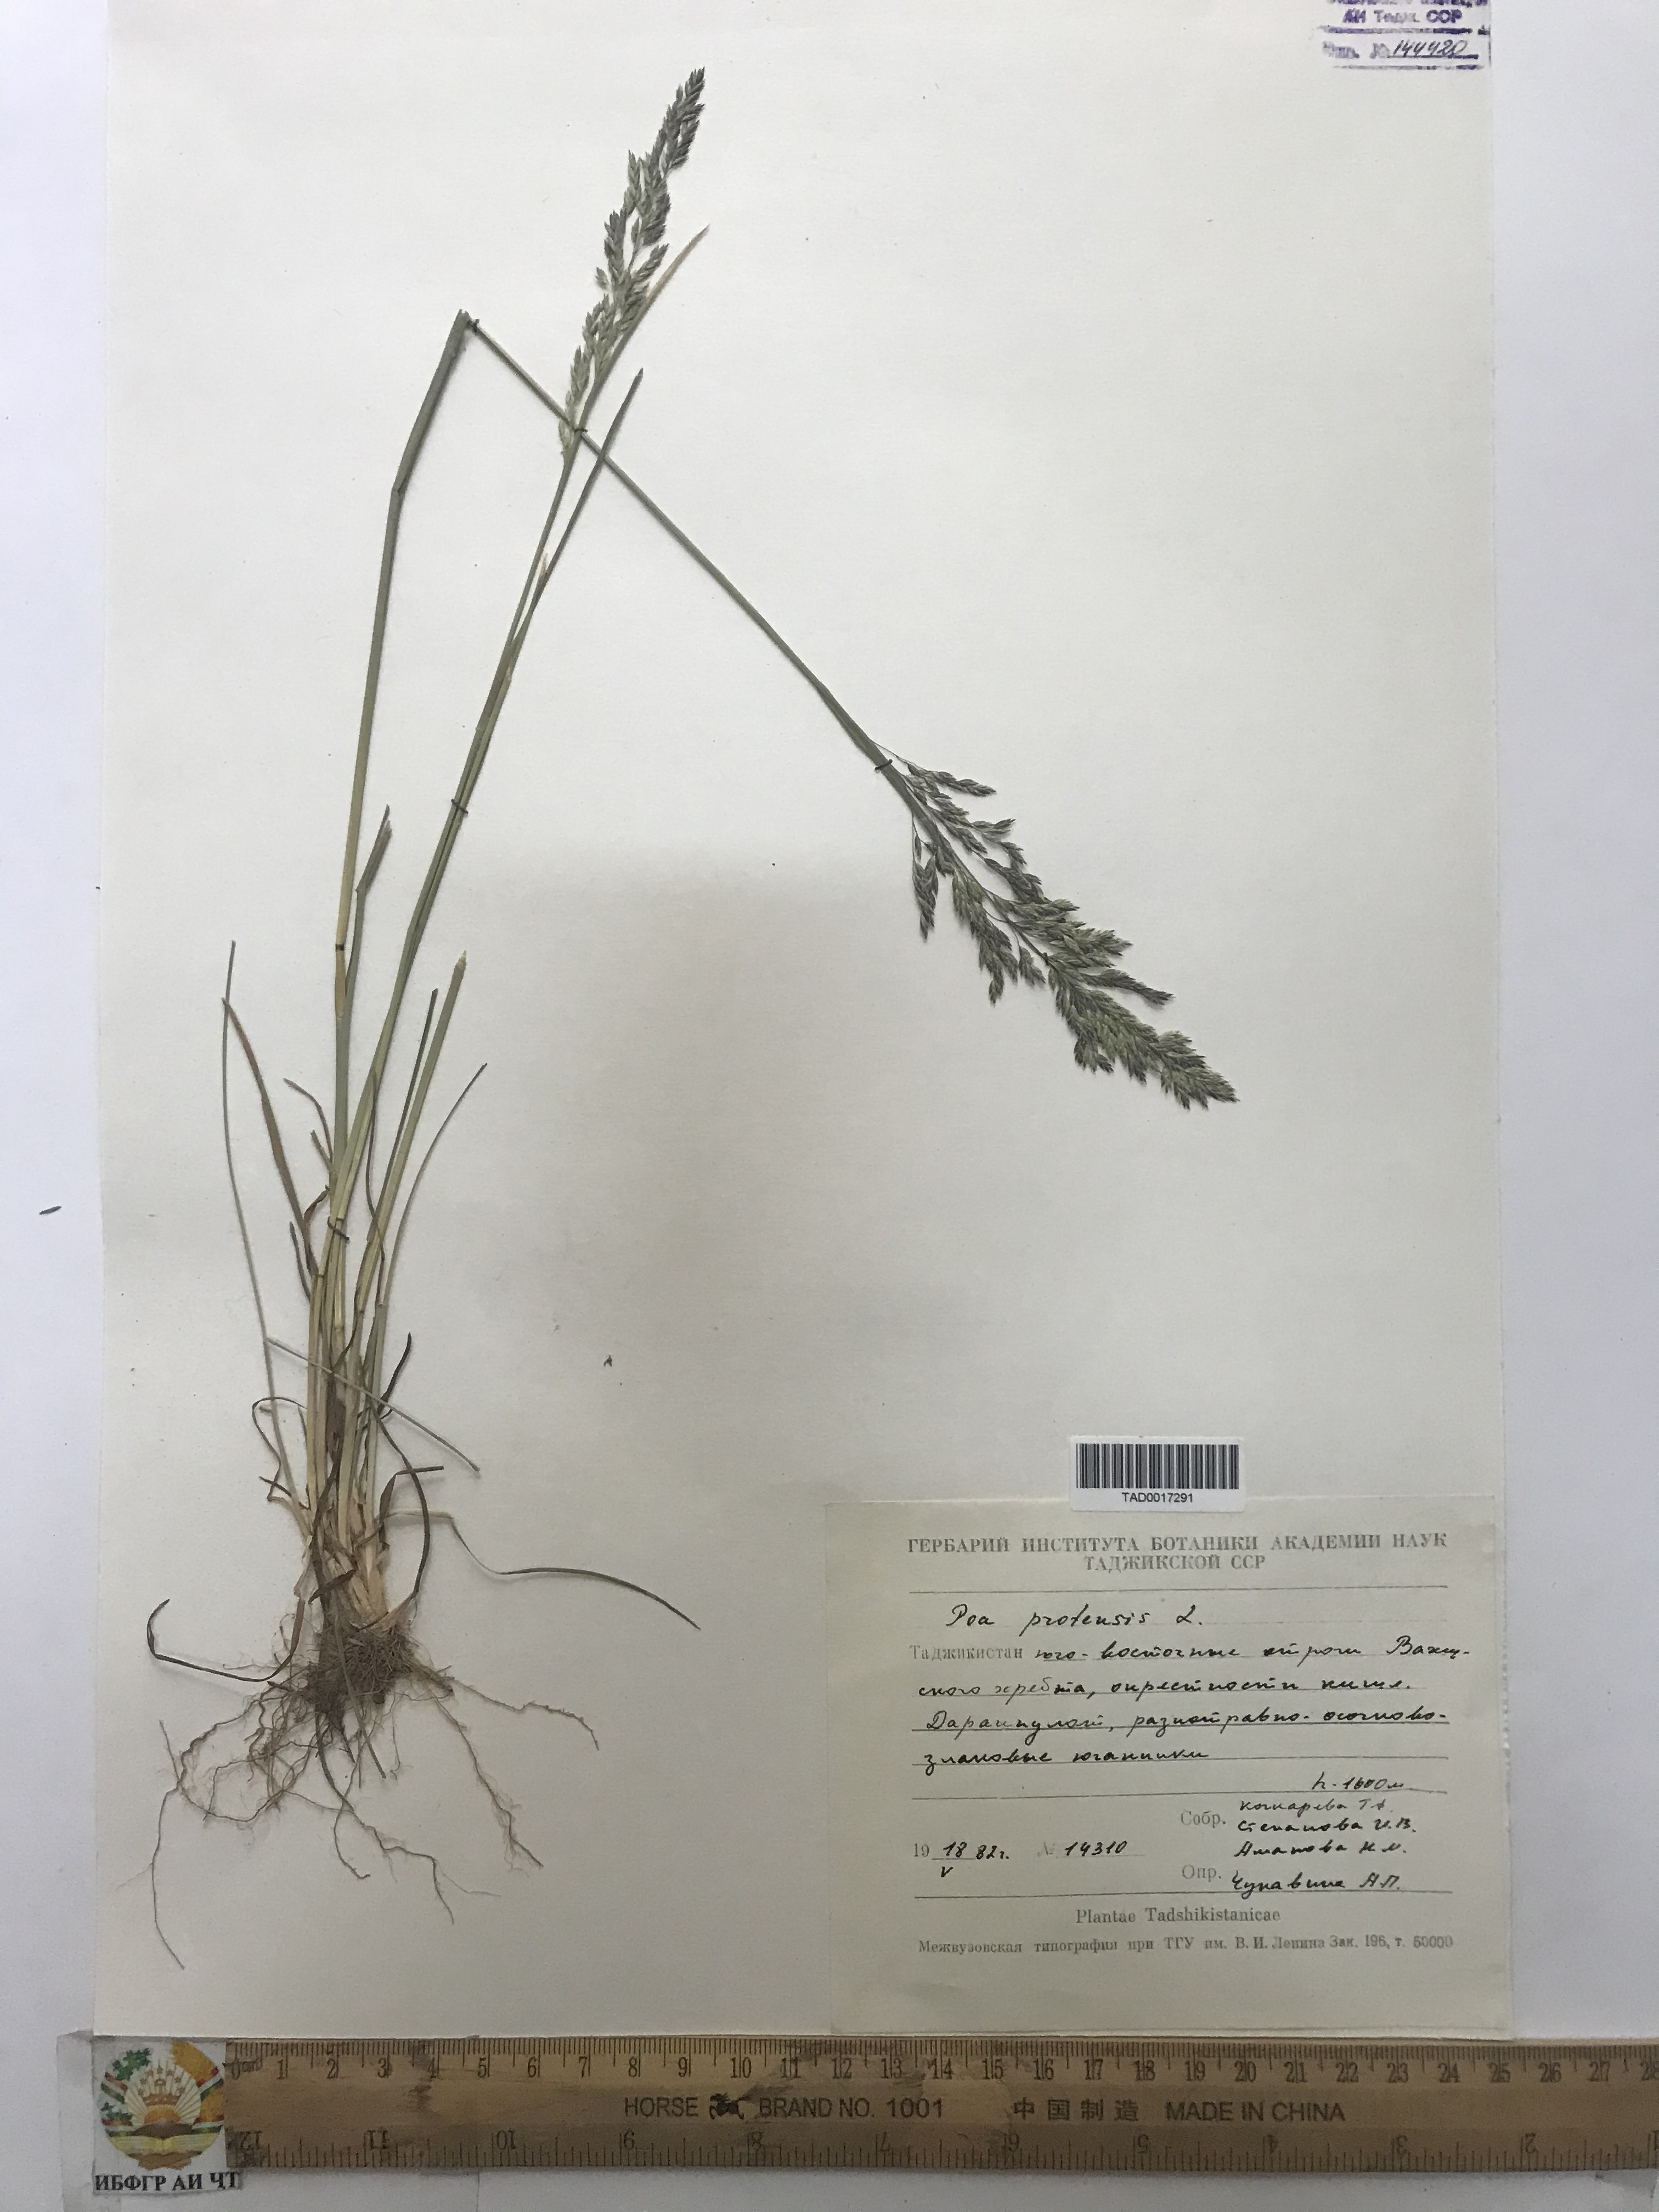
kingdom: Plantae
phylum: Tracheophyta
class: Liliopsida
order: Poales
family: Poaceae
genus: Poa
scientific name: Poa pratensis
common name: Kentucky bluegrass
